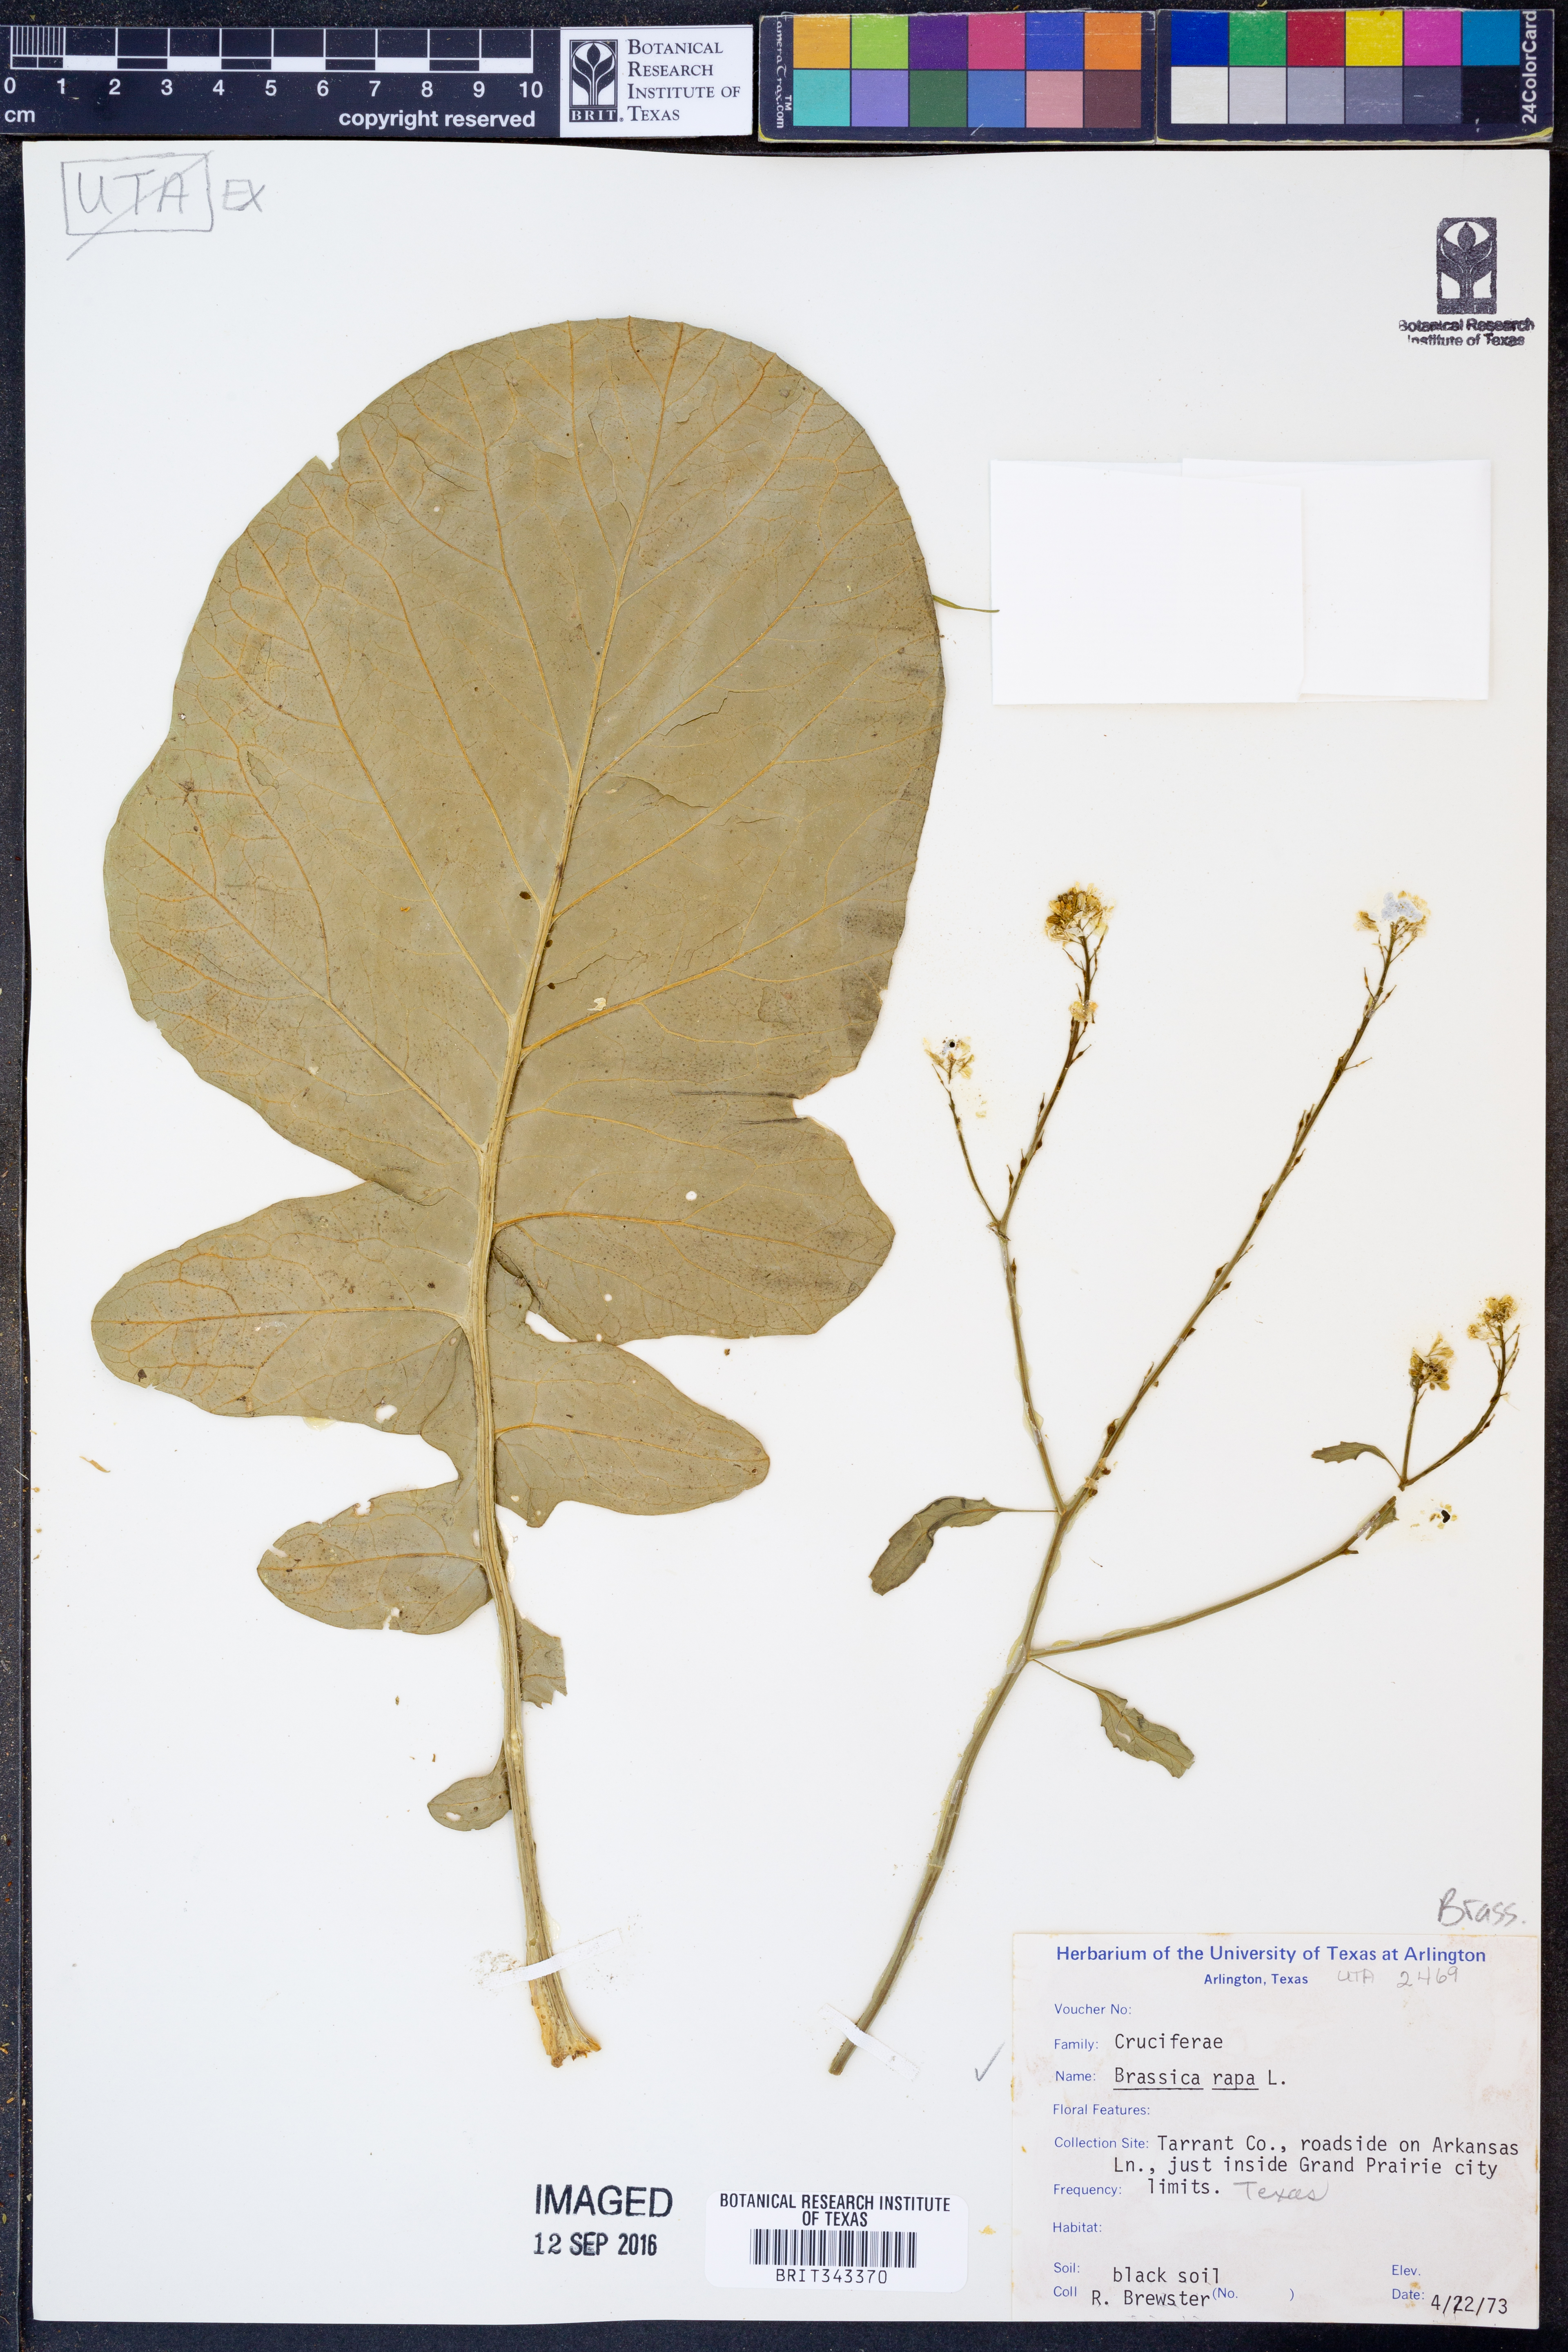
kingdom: Plantae
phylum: Tracheophyta
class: Magnoliopsida
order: Brassicales
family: Brassicaceae
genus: Brassica
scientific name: Brassica rapa
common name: Field mustard
